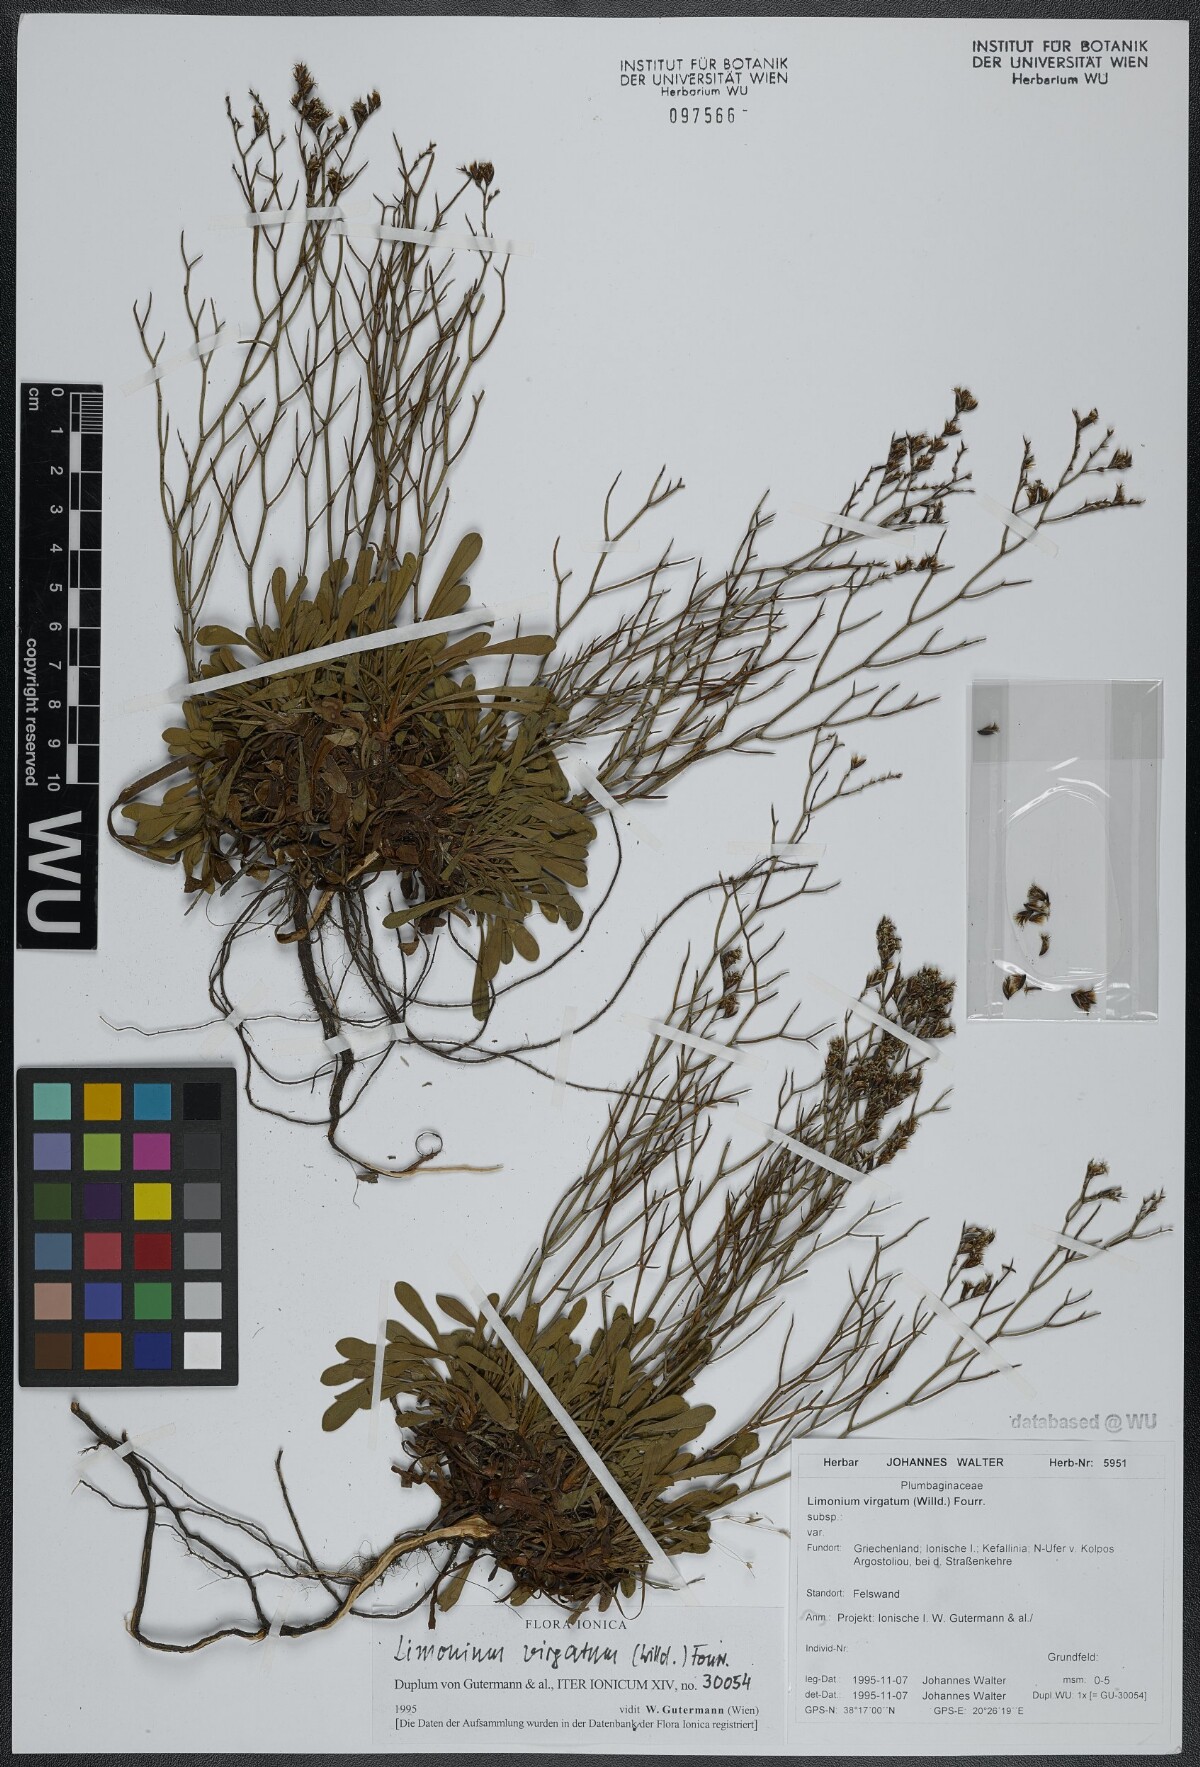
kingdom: Plantae
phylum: Tracheophyta
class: Magnoliopsida
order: Caryophyllales
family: Plumbaginaceae
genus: Limonium
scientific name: Limonium virgatum
